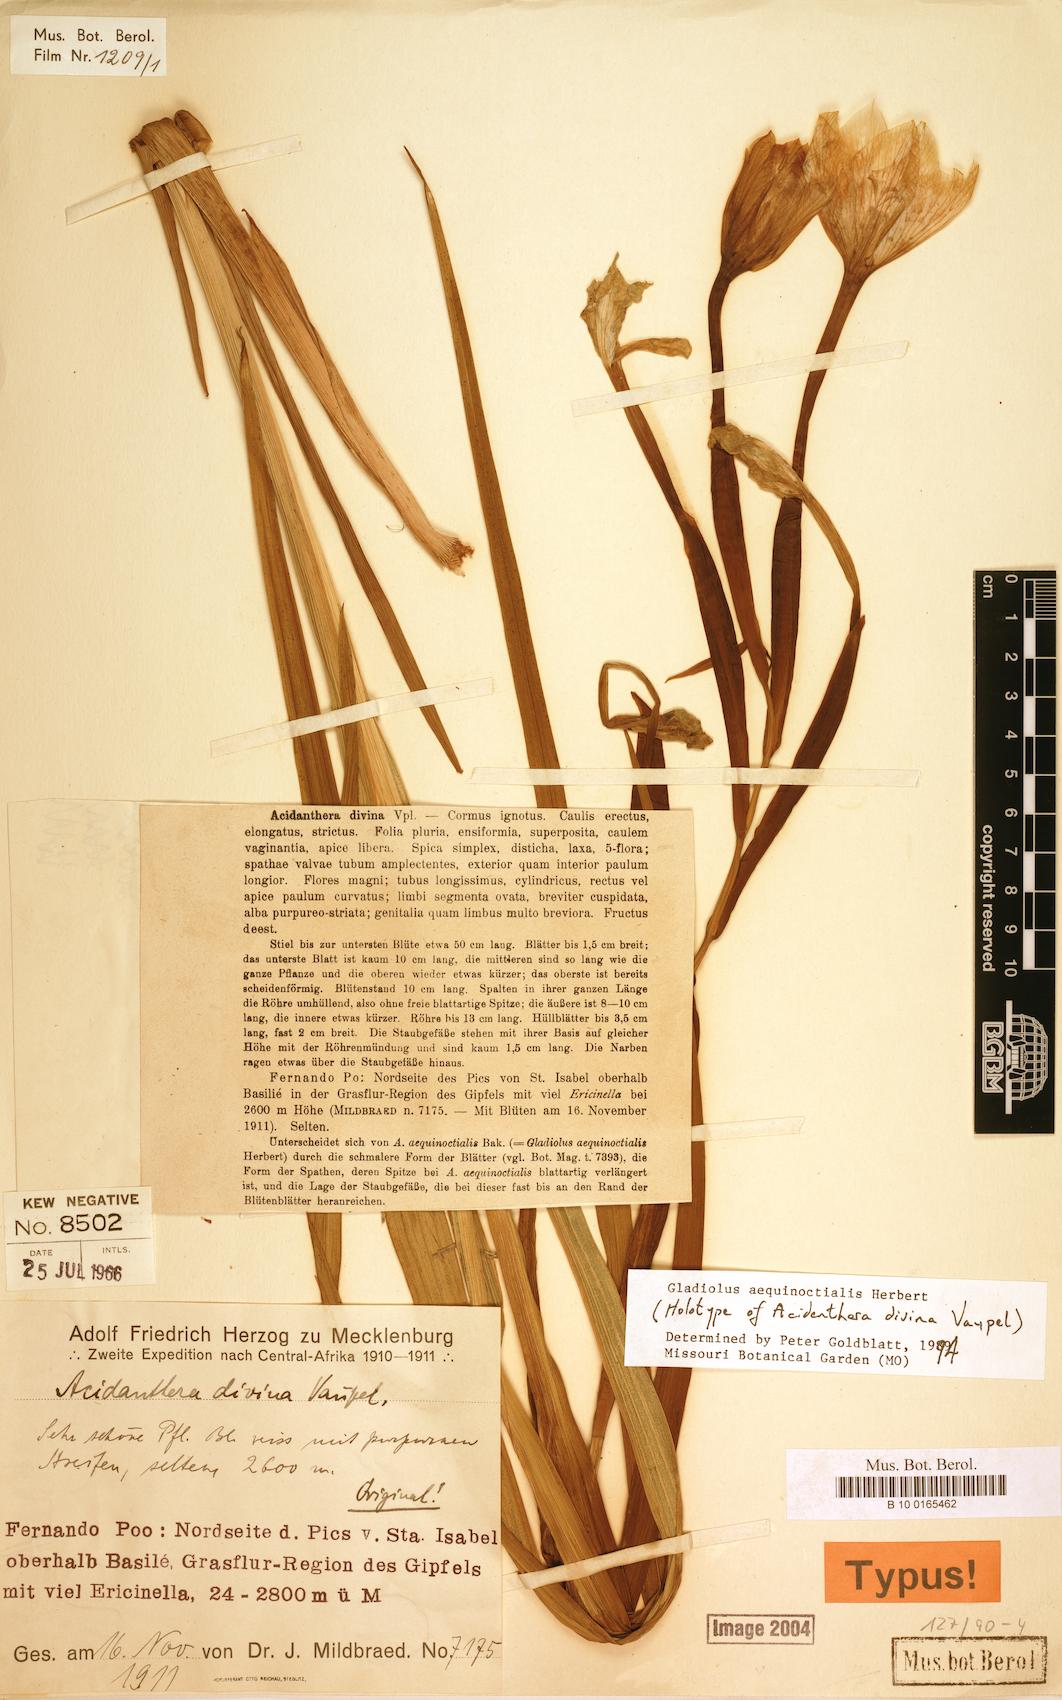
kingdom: Plantae
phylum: Tracheophyta
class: Liliopsida
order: Asparagales
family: Iridaceae
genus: Gladiolus
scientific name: Gladiolus aequinoctialis
